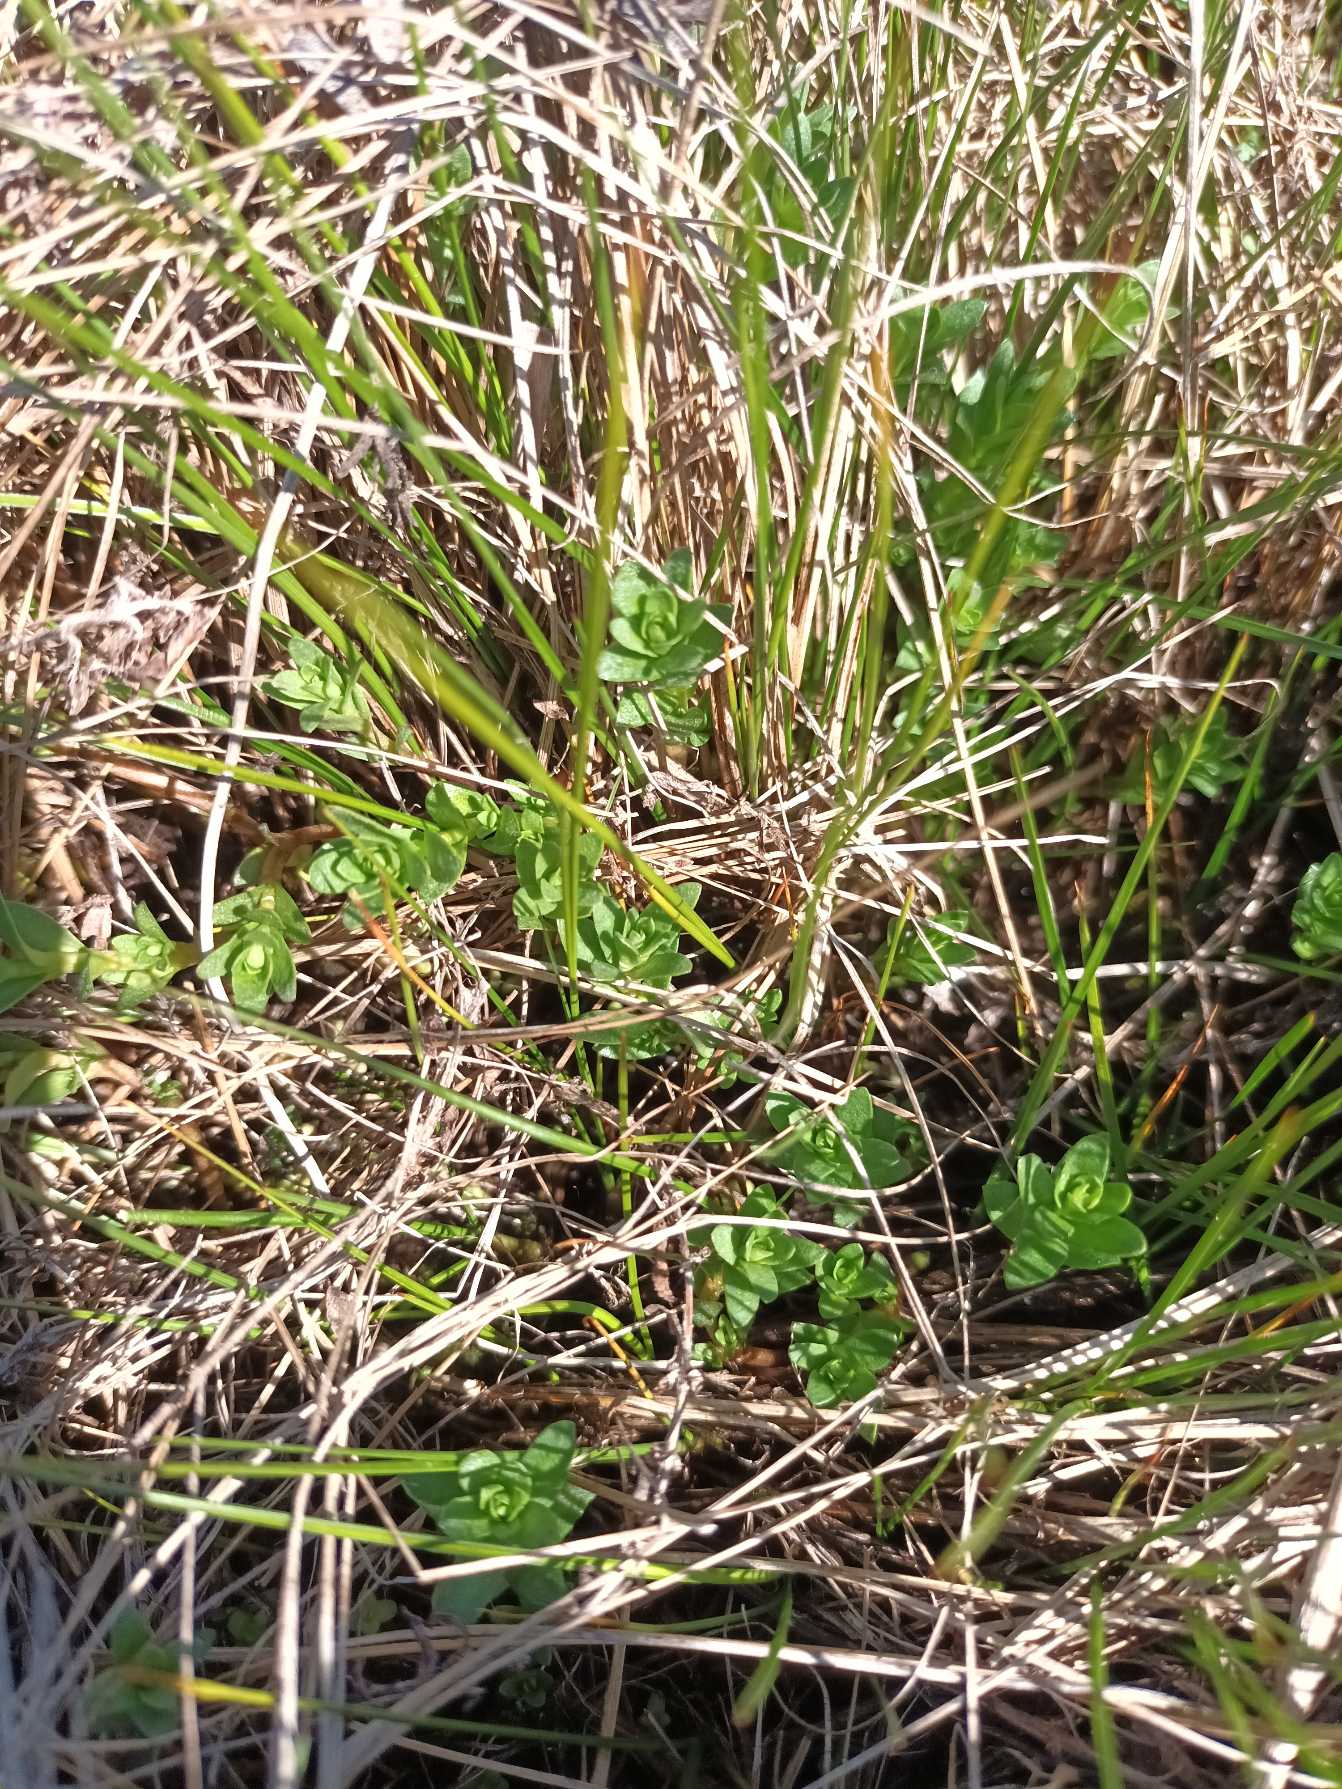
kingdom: Plantae
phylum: Tracheophyta
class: Magnoliopsida
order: Ericales
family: Primulaceae
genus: Lysimachia
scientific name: Lysimachia maritima
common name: Sandkryb
